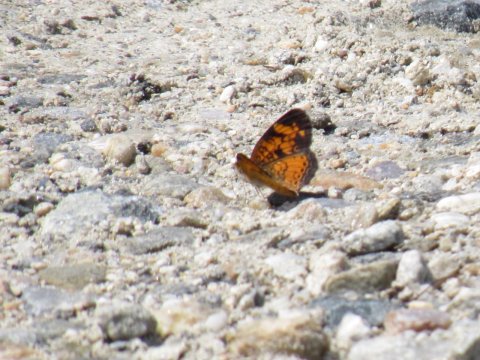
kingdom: Animalia
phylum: Arthropoda
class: Insecta
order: Lepidoptera
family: Nymphalidae
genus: Phyciodes
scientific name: Phyciodes
